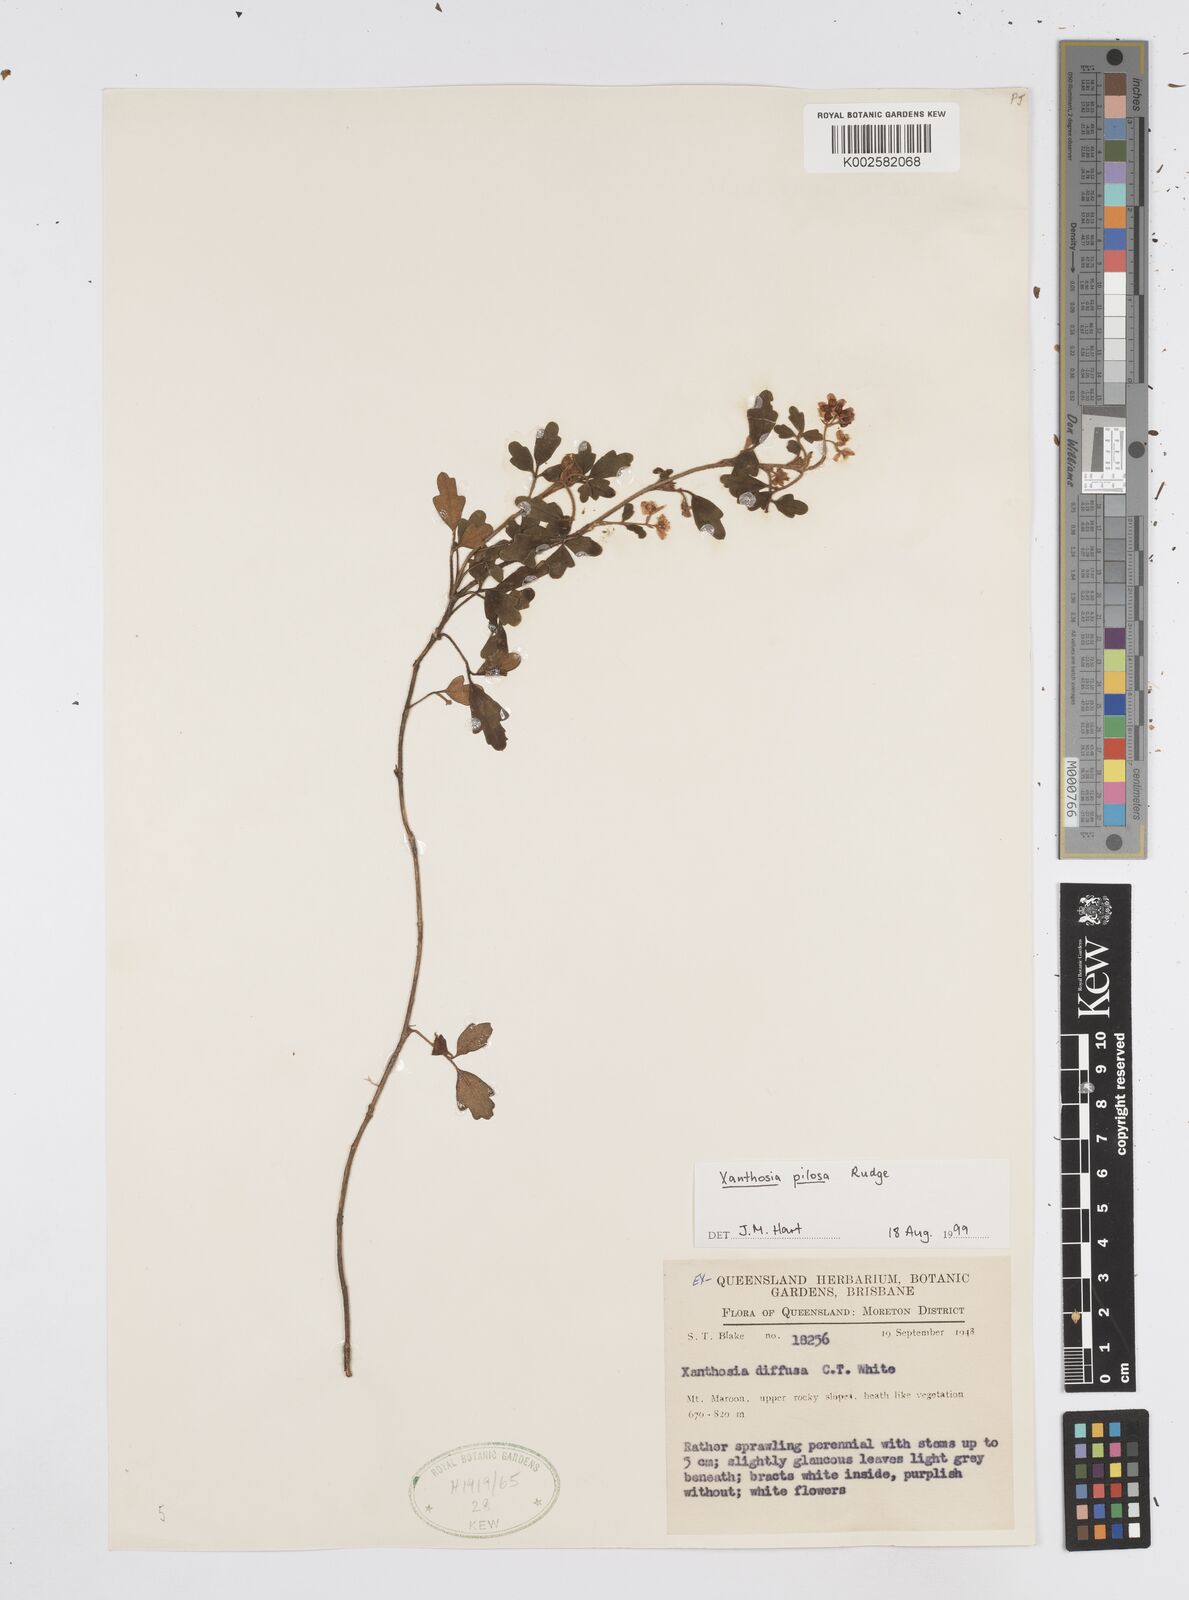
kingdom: Plantae
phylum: Tracheophyta
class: Magnoliopsida
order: Apiales
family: Apiaceae
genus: Xanthosia
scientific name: Xanthosia pilosa
